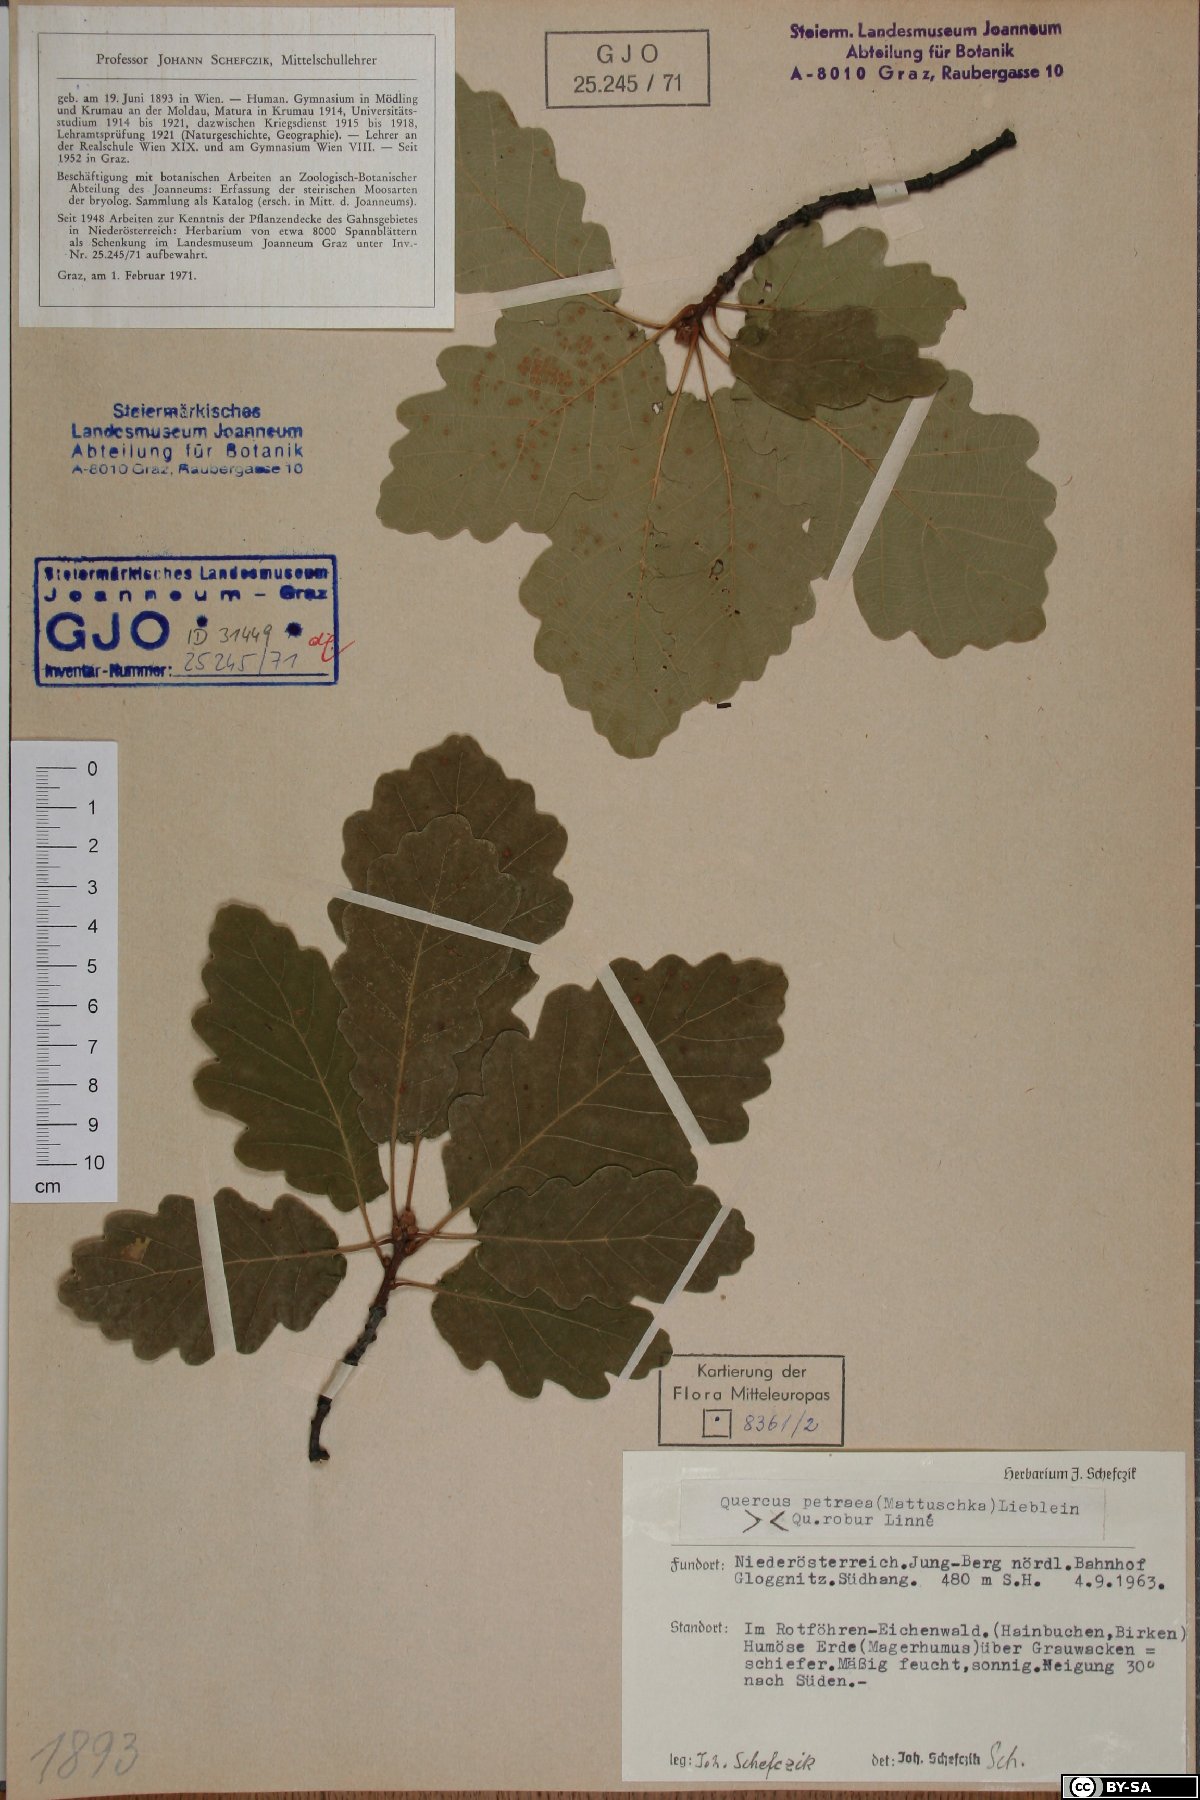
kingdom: Plantae
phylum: Tracheophyta
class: Magnoliopsida
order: Fagales
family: Fagaceae
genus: Quercus
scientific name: Quercus petraea
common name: Sessile oak
